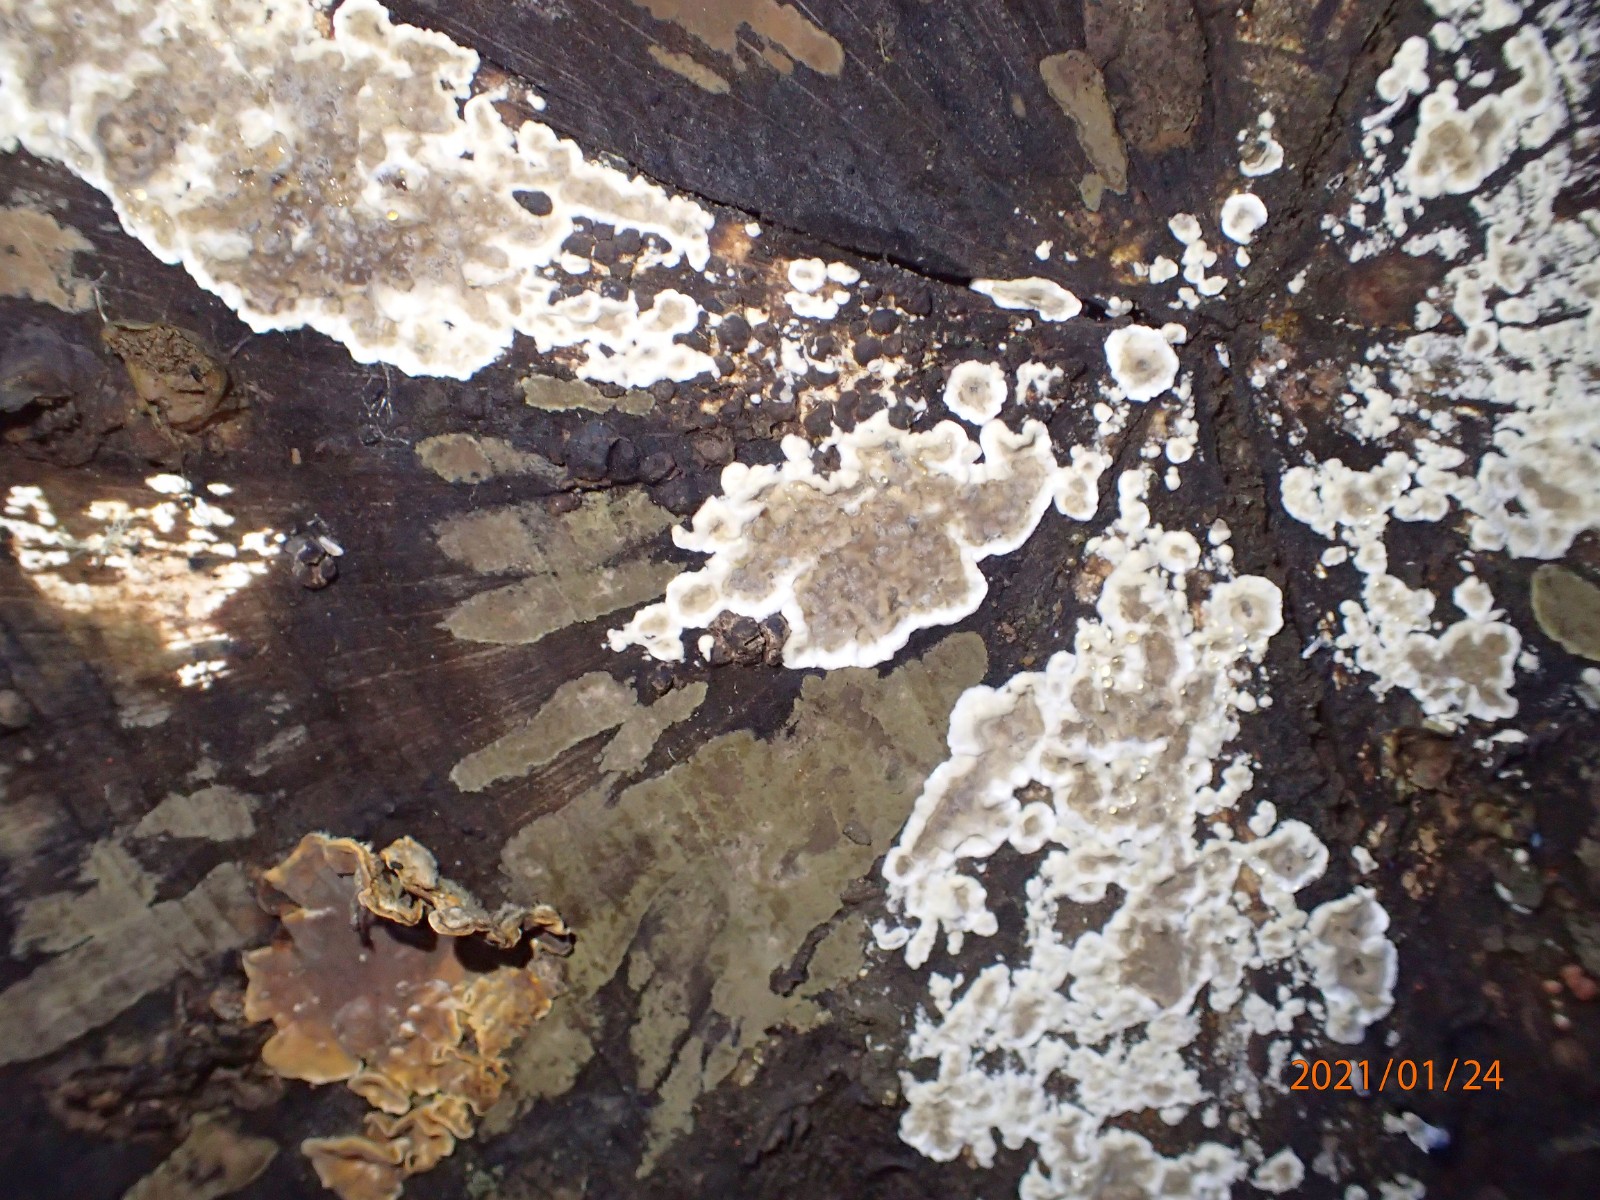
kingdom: Fungi
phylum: Basidiomycota
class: Agaricomycetes
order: Russulales
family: Stereaceae
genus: Stereum
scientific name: Stereum rugosum
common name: rynket lædersvamp
